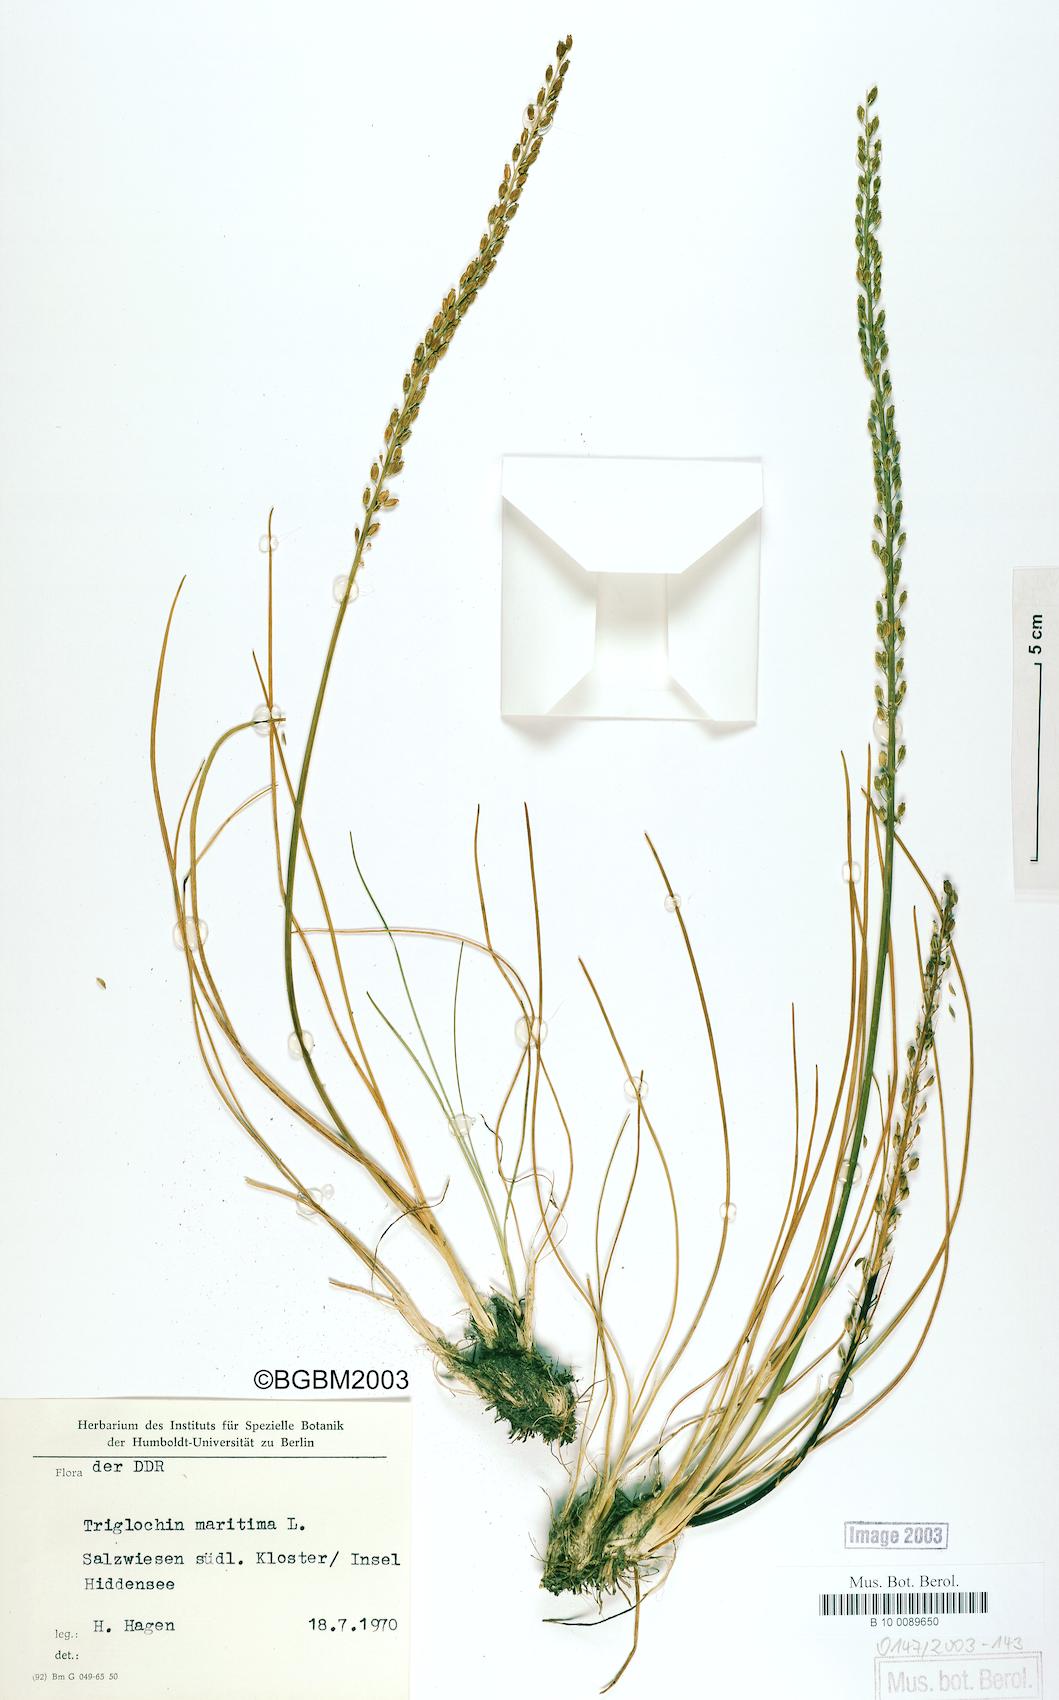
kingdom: Plantae
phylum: Tracheophyta
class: Liliopsida
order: Alismatales
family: Juncaginaceae
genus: Triglochin
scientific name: Triglochin maritima
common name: Sea arrowgrass
